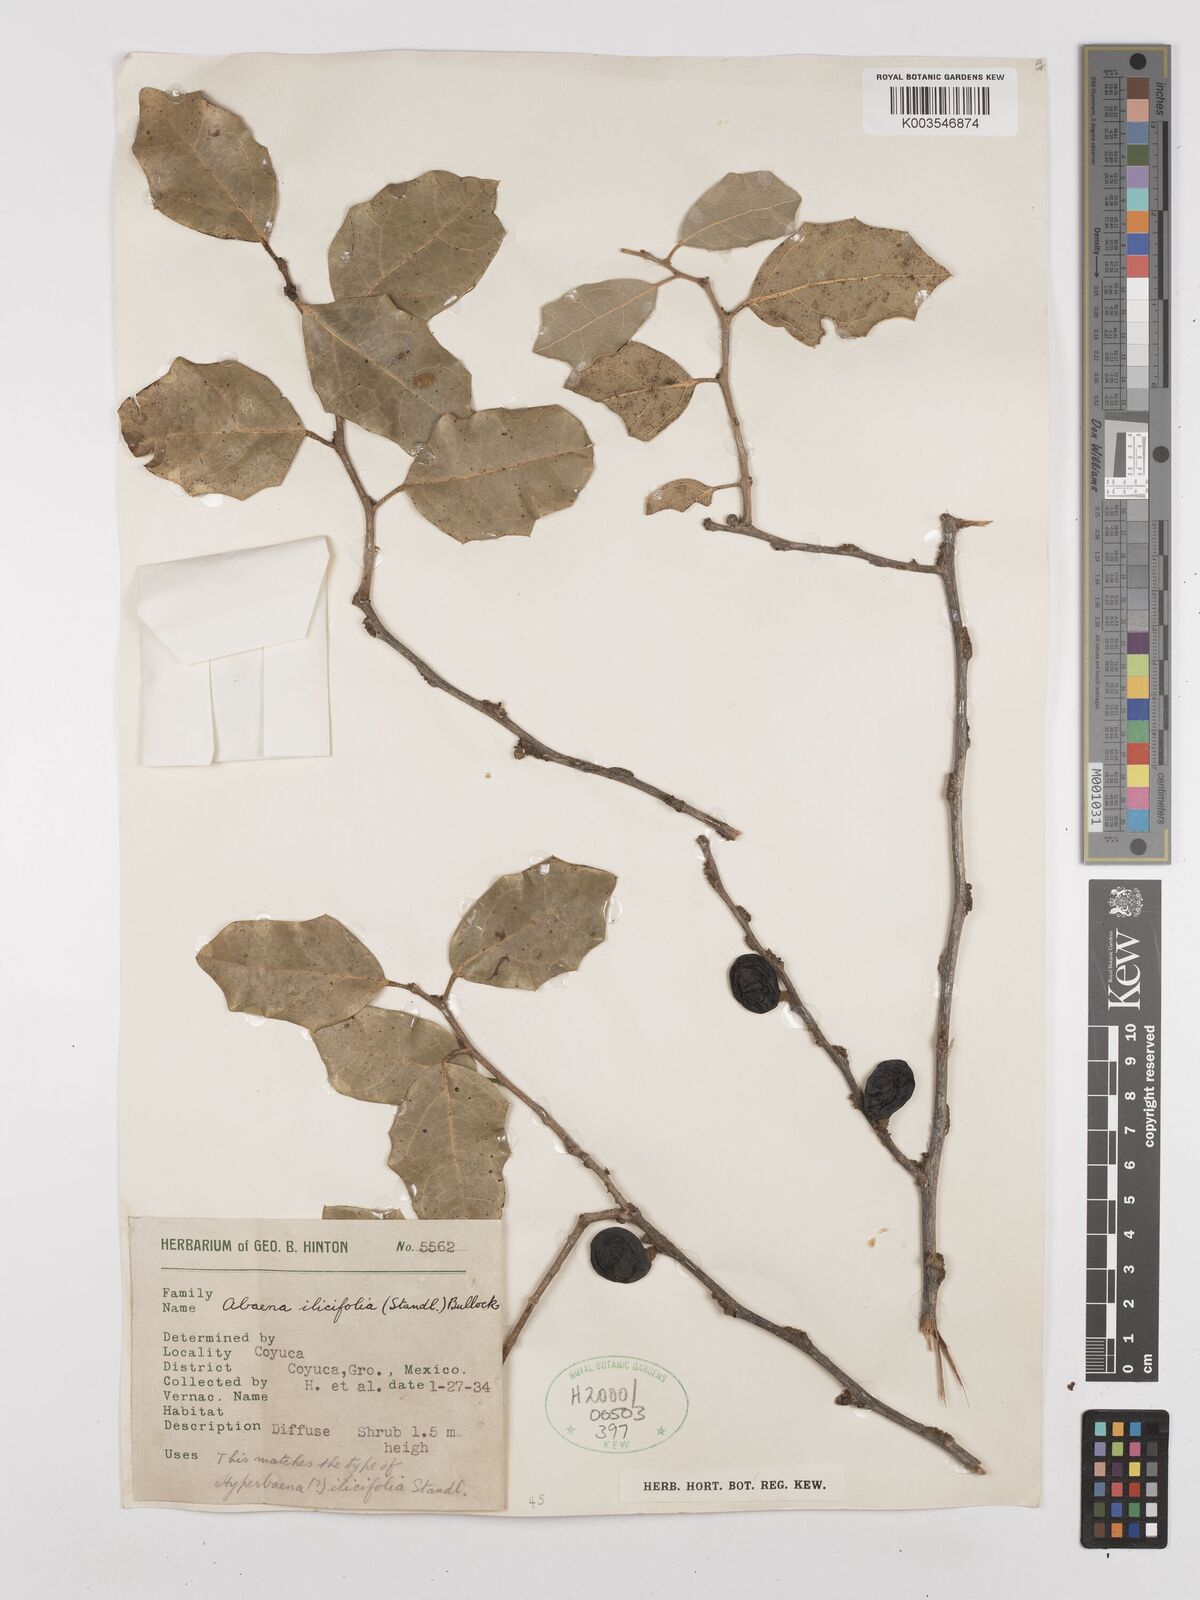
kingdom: Plantae
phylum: Tracheophyta
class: Magnoliopsida
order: Ranunculales
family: Menispermaceae
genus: Hyperbaena
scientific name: Hyperbaena ilicifolia
